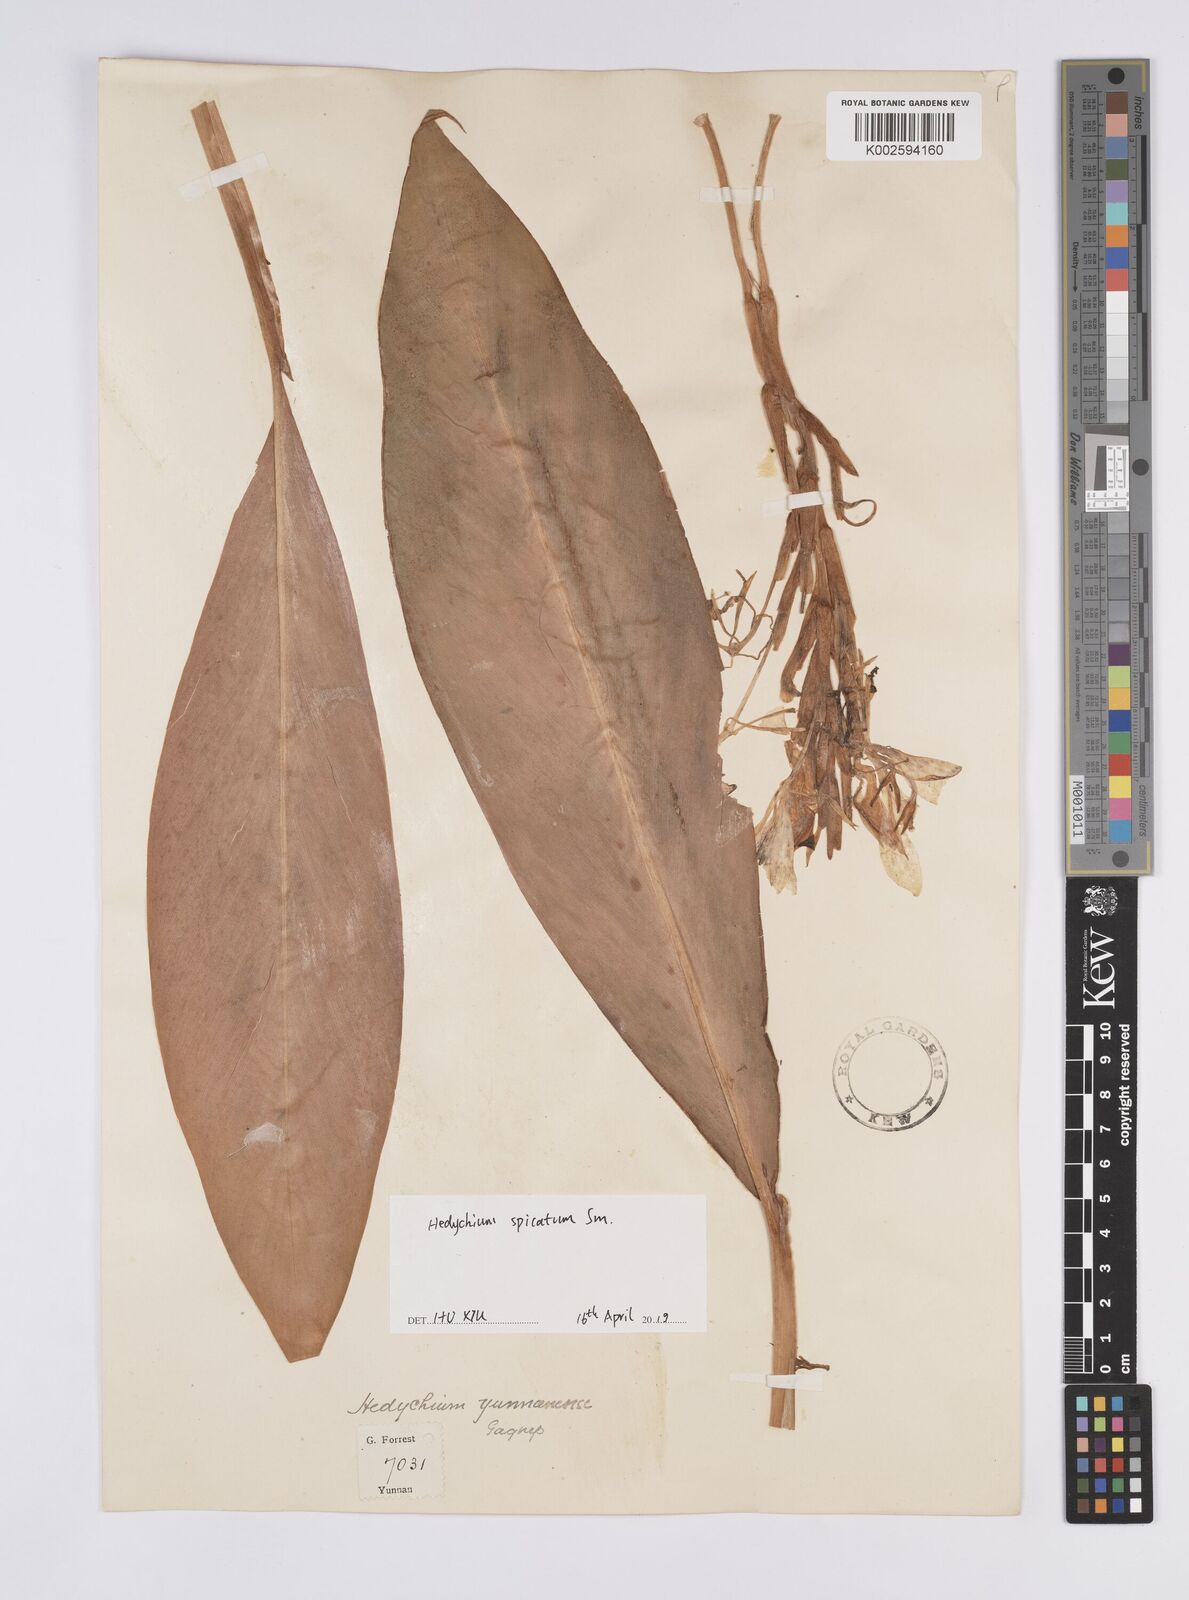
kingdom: Plantae
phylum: Tracheophyta
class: Liliopsida
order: Zingiberales
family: Zingiberaceae
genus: Hedychium
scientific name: Hedychium spicatum
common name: Spiked ginger-lily
